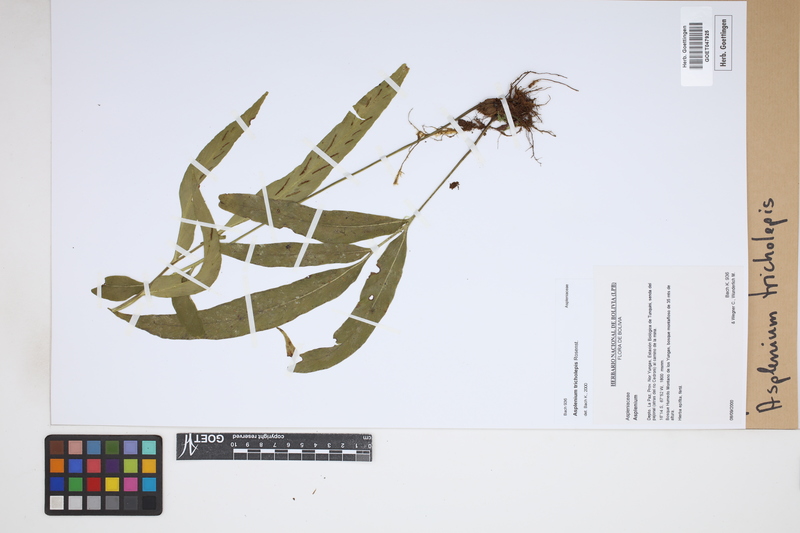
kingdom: Plantae
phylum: Tracheophyta
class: Polypodiopsida
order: Polypodiales
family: Aspleniaceae
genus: Asplenium
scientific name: Asplenium tricholepis
